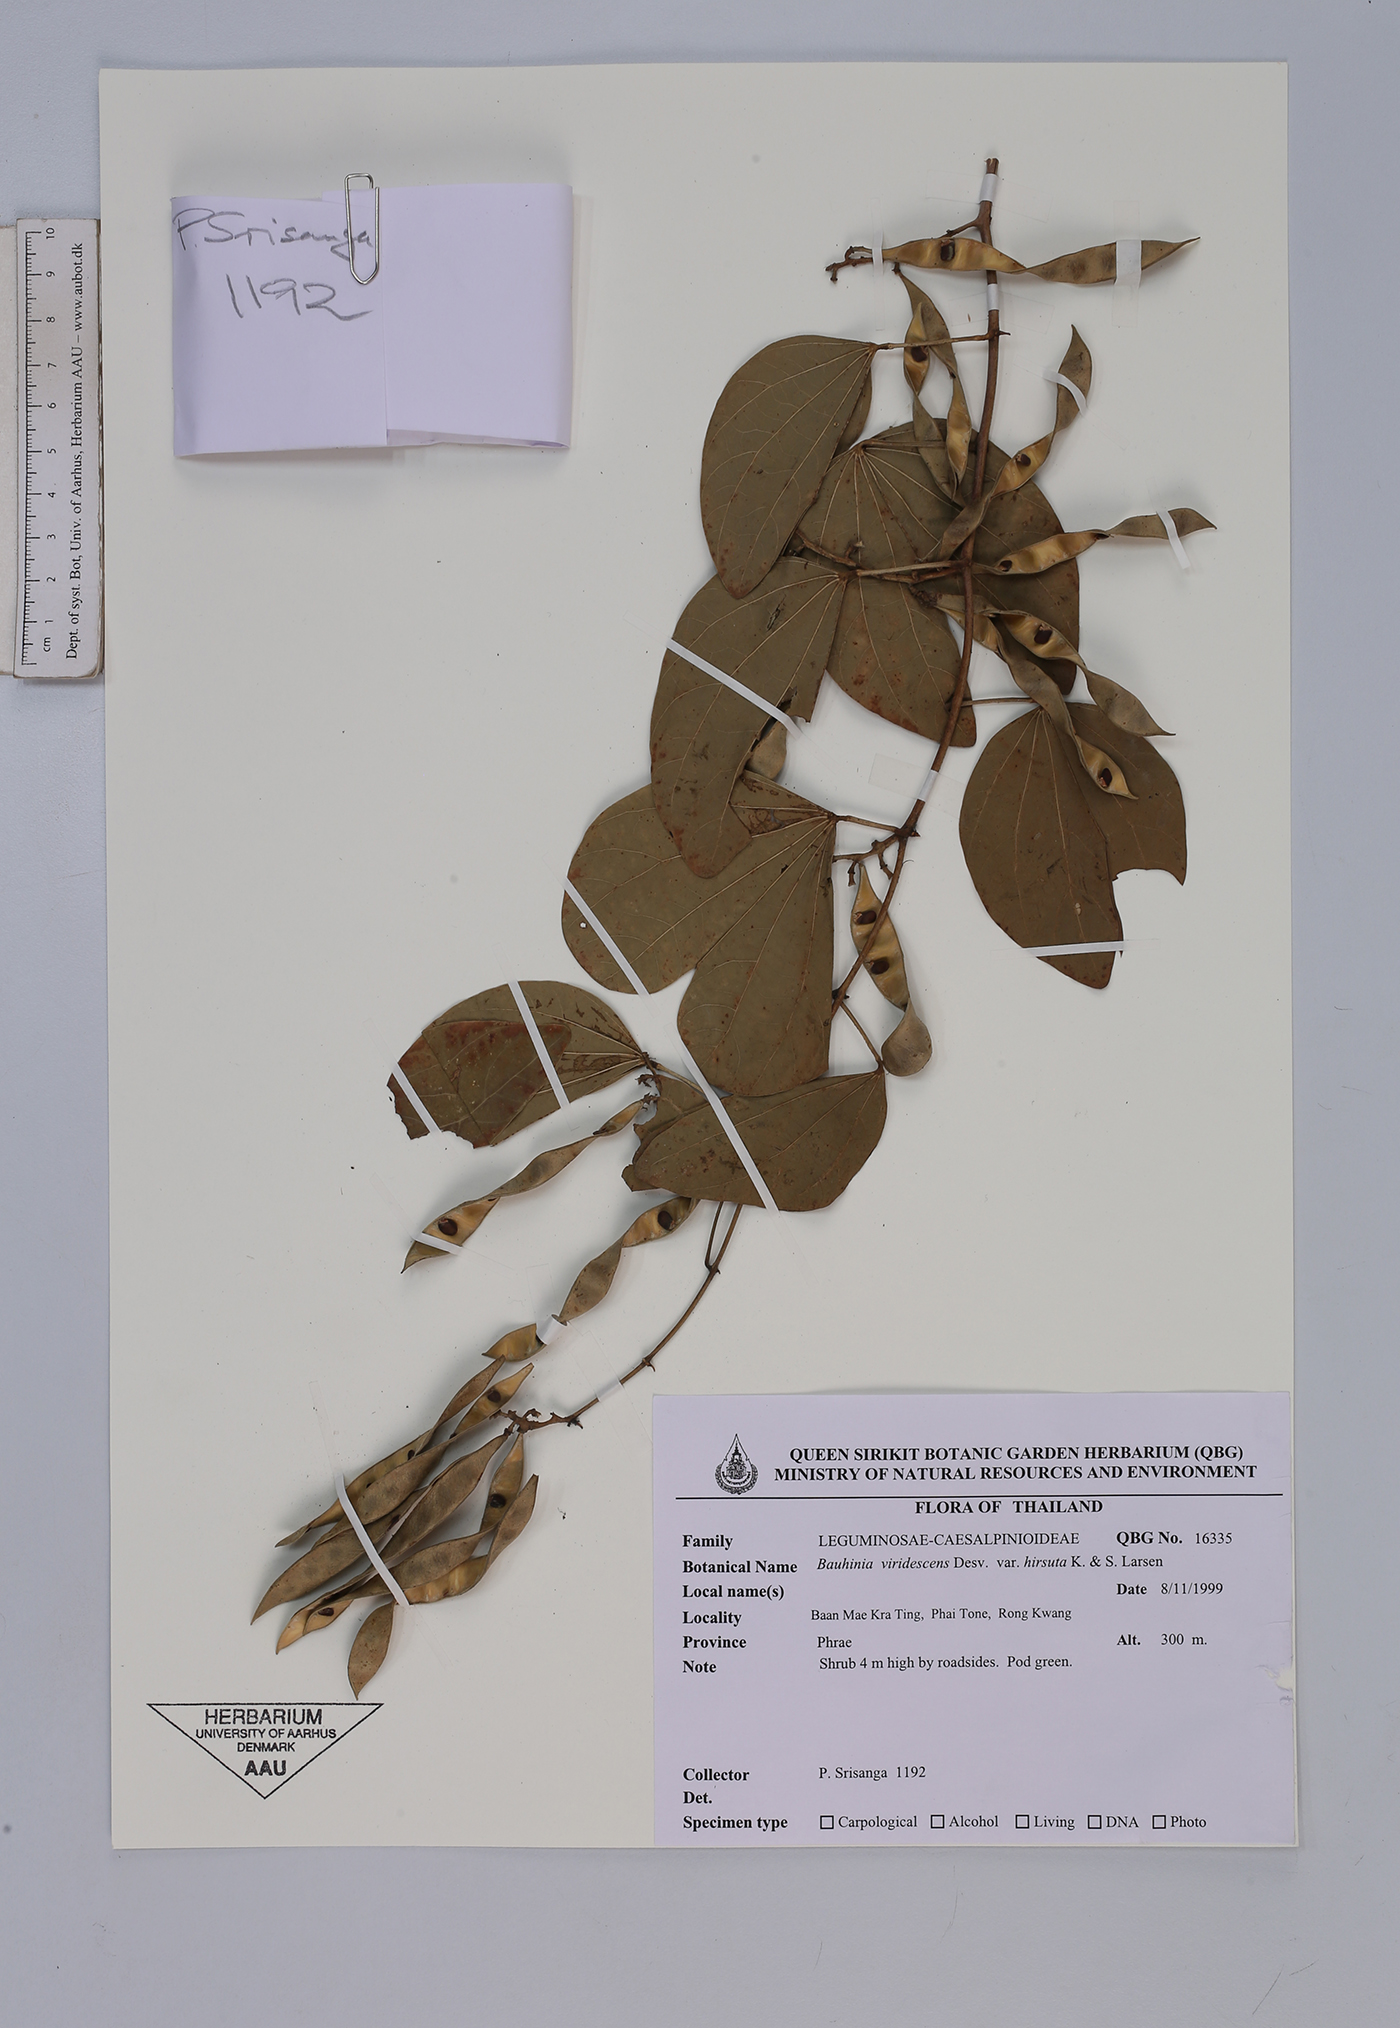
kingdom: Plantae
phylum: Tracheophyta
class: Magnoliopsida
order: Fabales
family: Fabaceae
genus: Bauhinia
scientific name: Bauhinia viridescens
